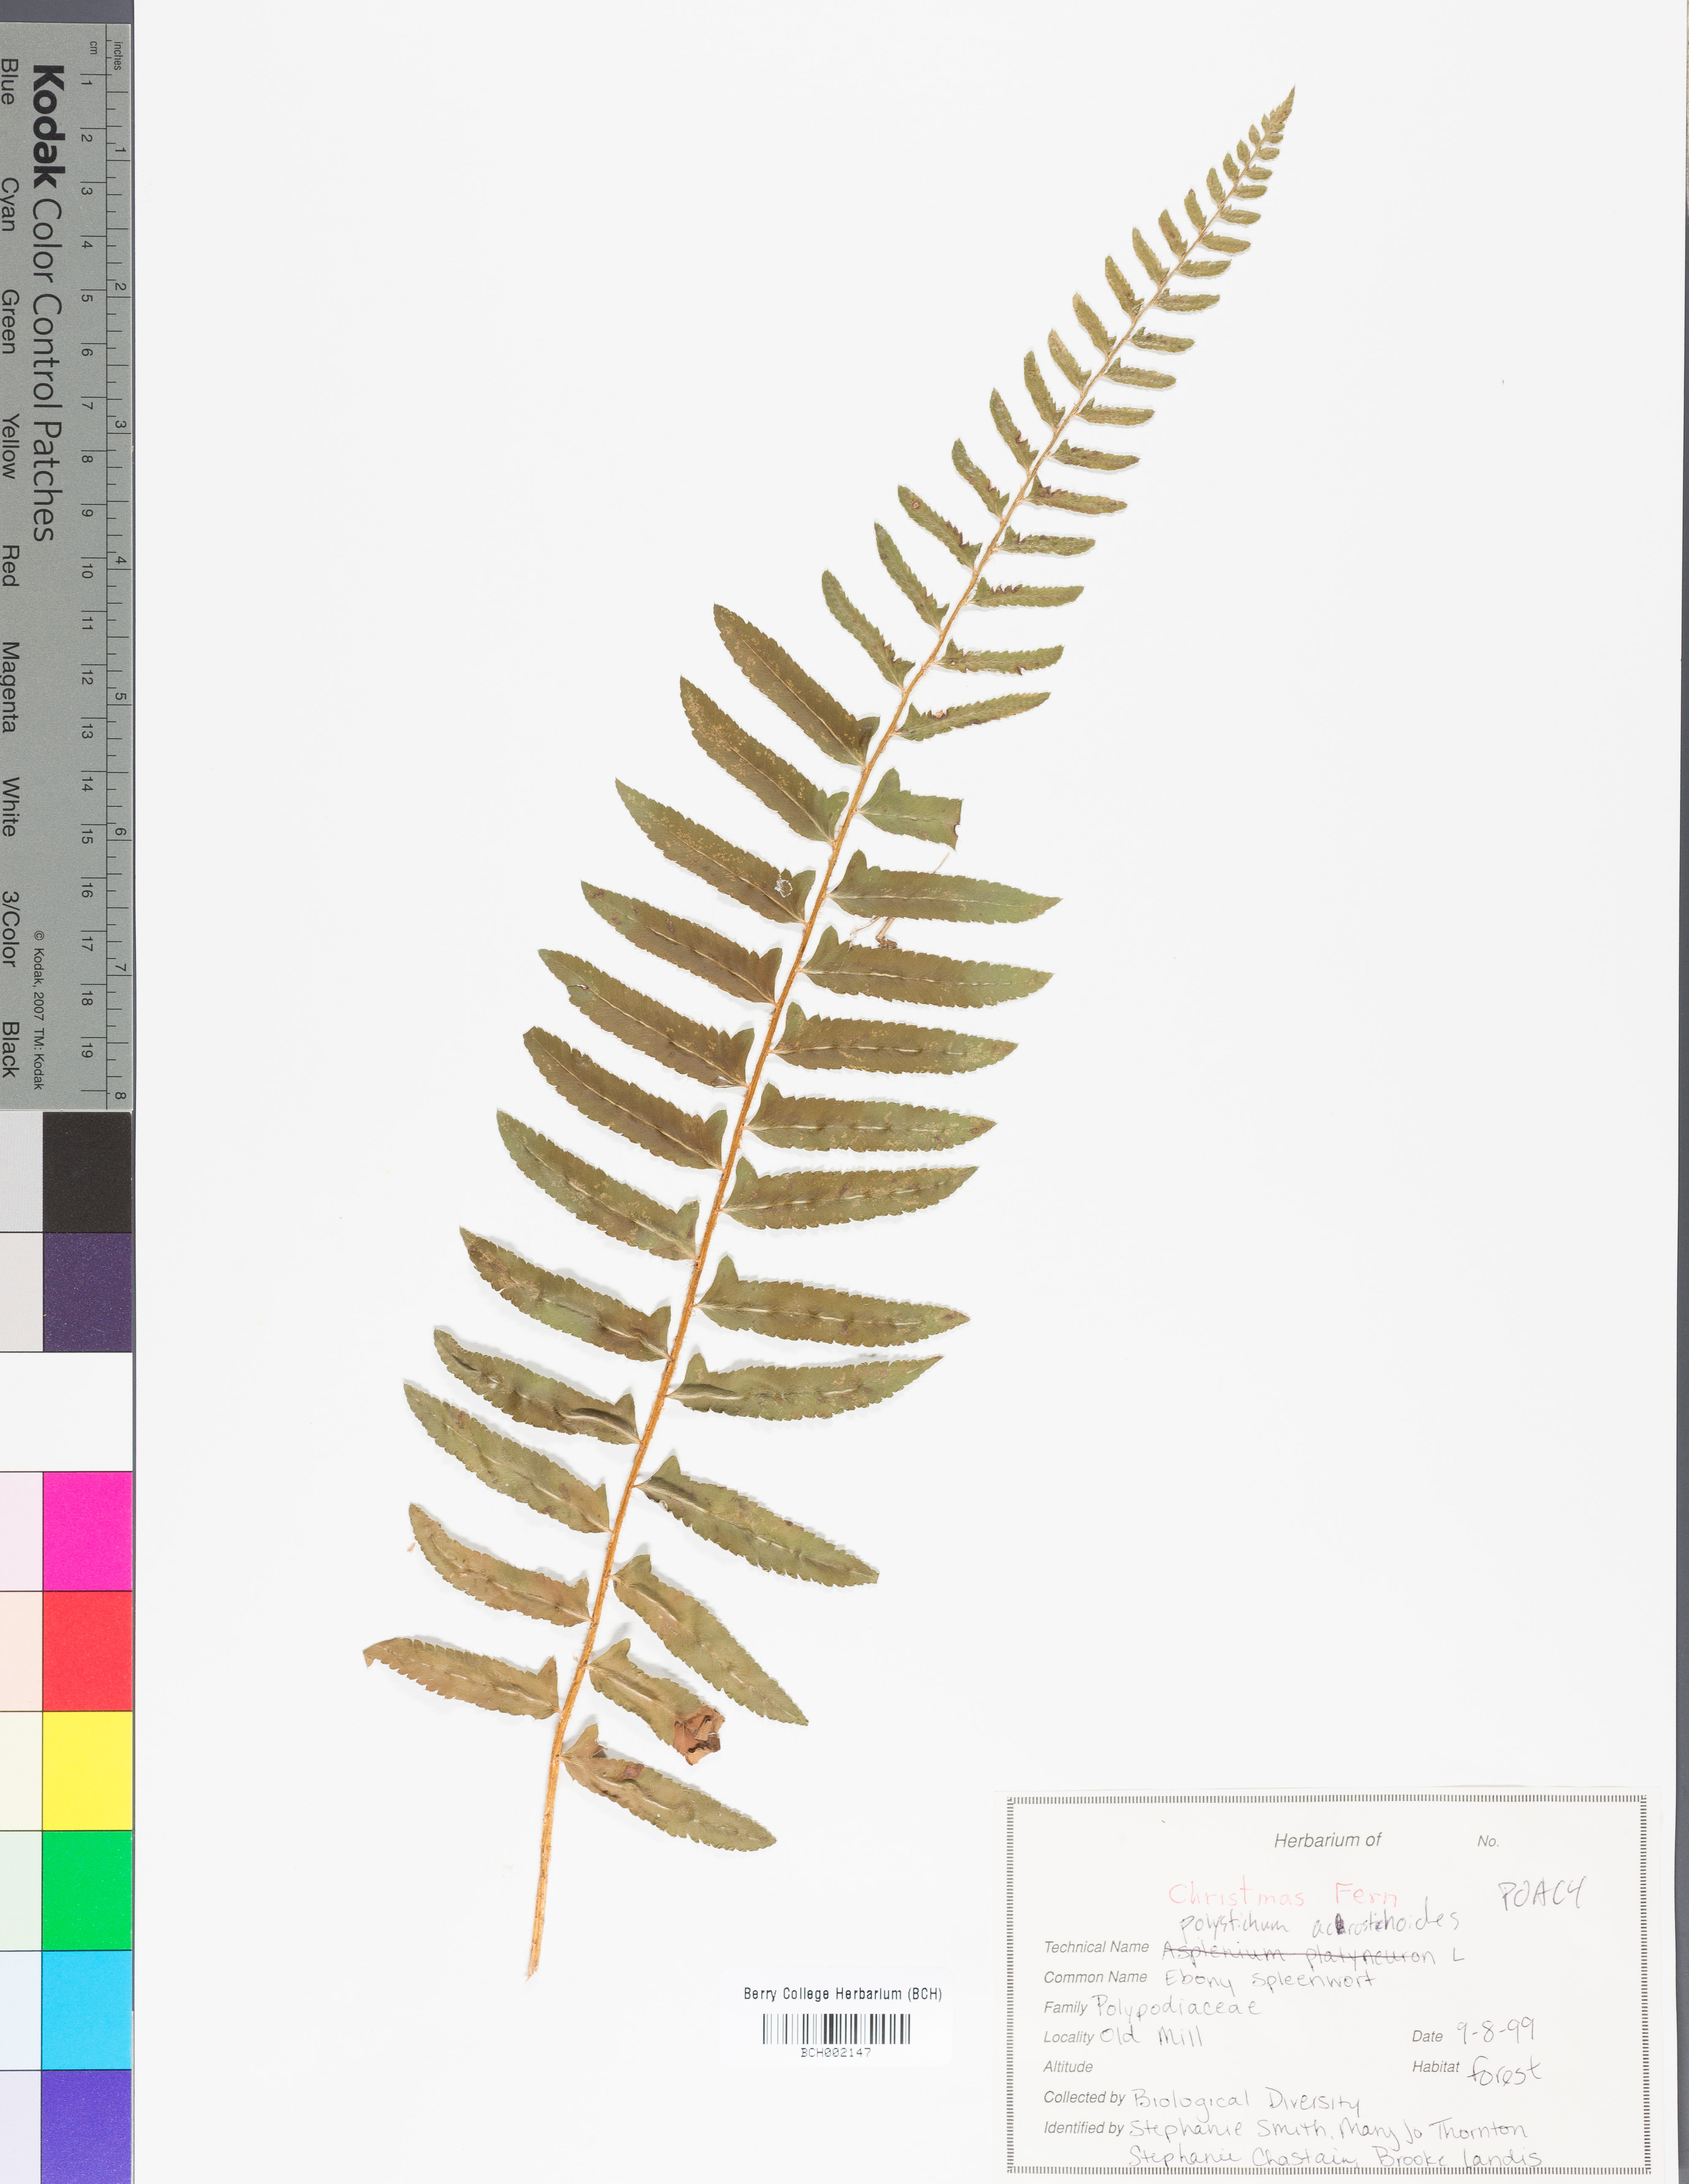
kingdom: Plantae
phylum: Tracheophyta
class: Polypodiopsida
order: Polypodiales
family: Dryopteridaceae
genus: Polystichum
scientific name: Polystichum acrostichoides
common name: Christmas fern
